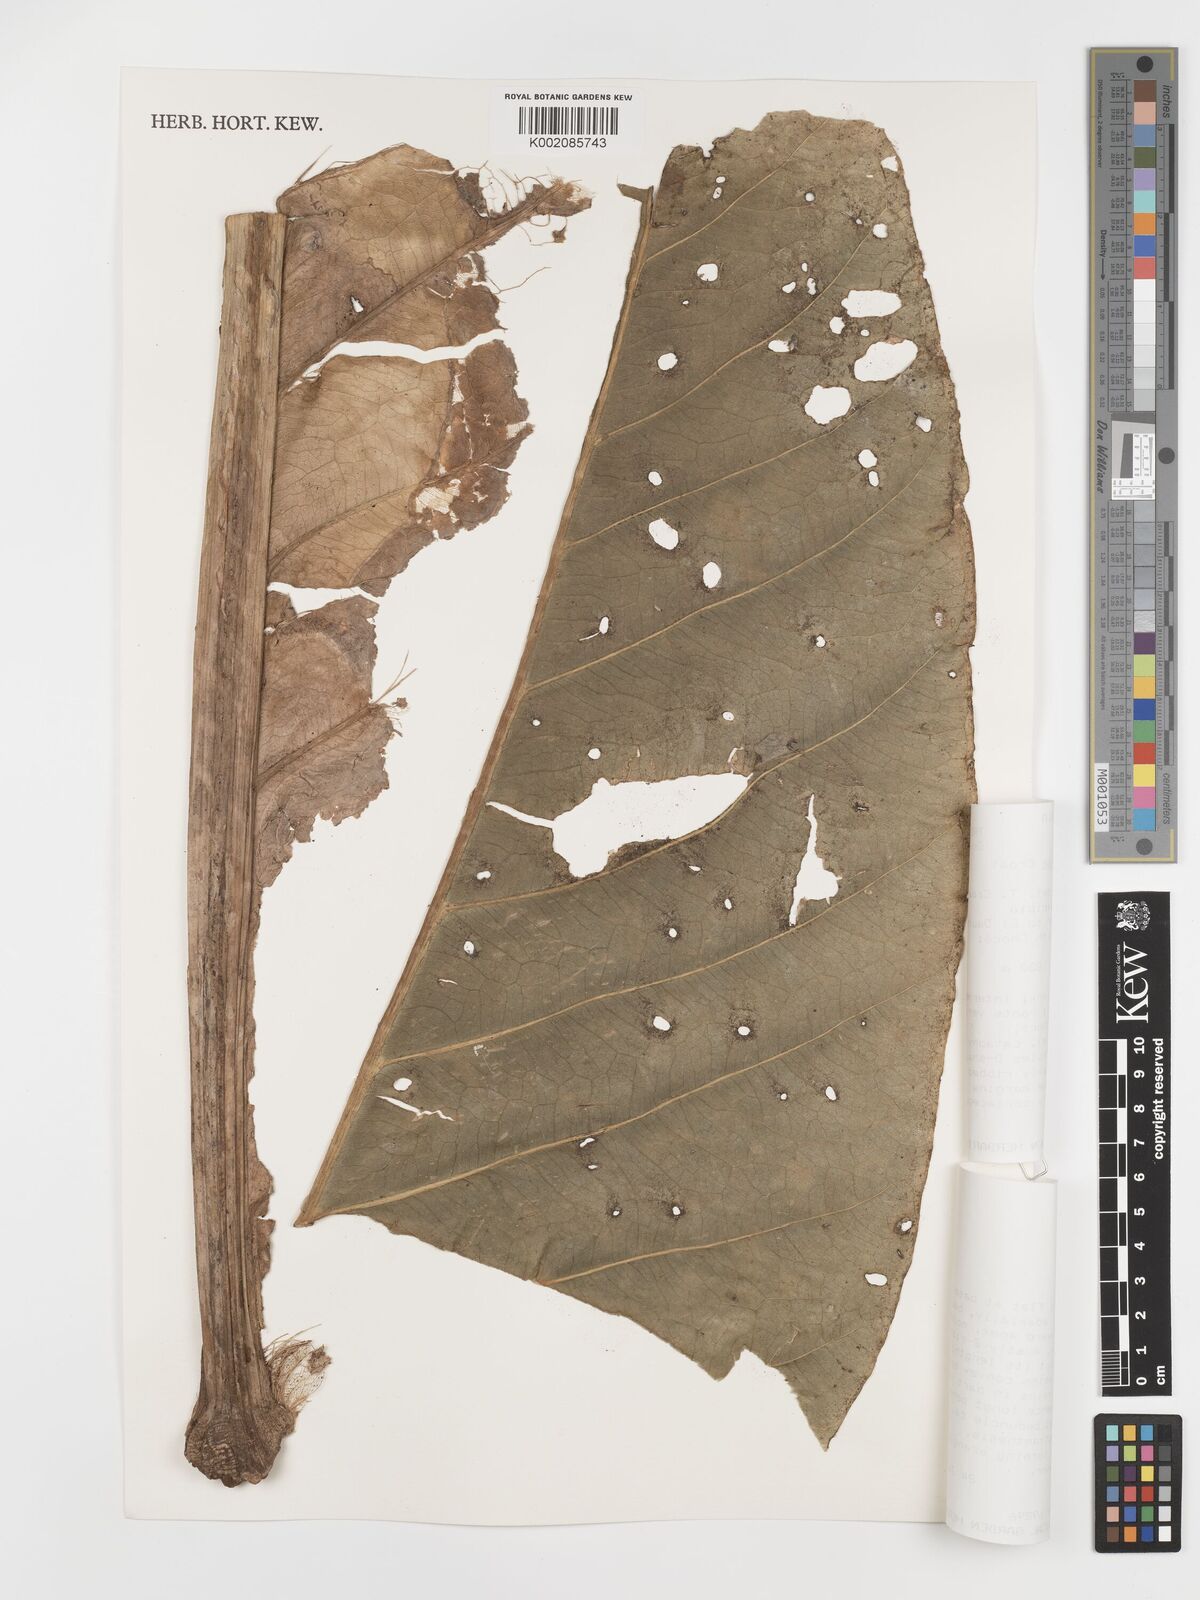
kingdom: Plantae
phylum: Tracheophyta
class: Liliopsida
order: Alismatales
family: Araceae
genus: Anthurium
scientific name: Anthurium caucavallense
